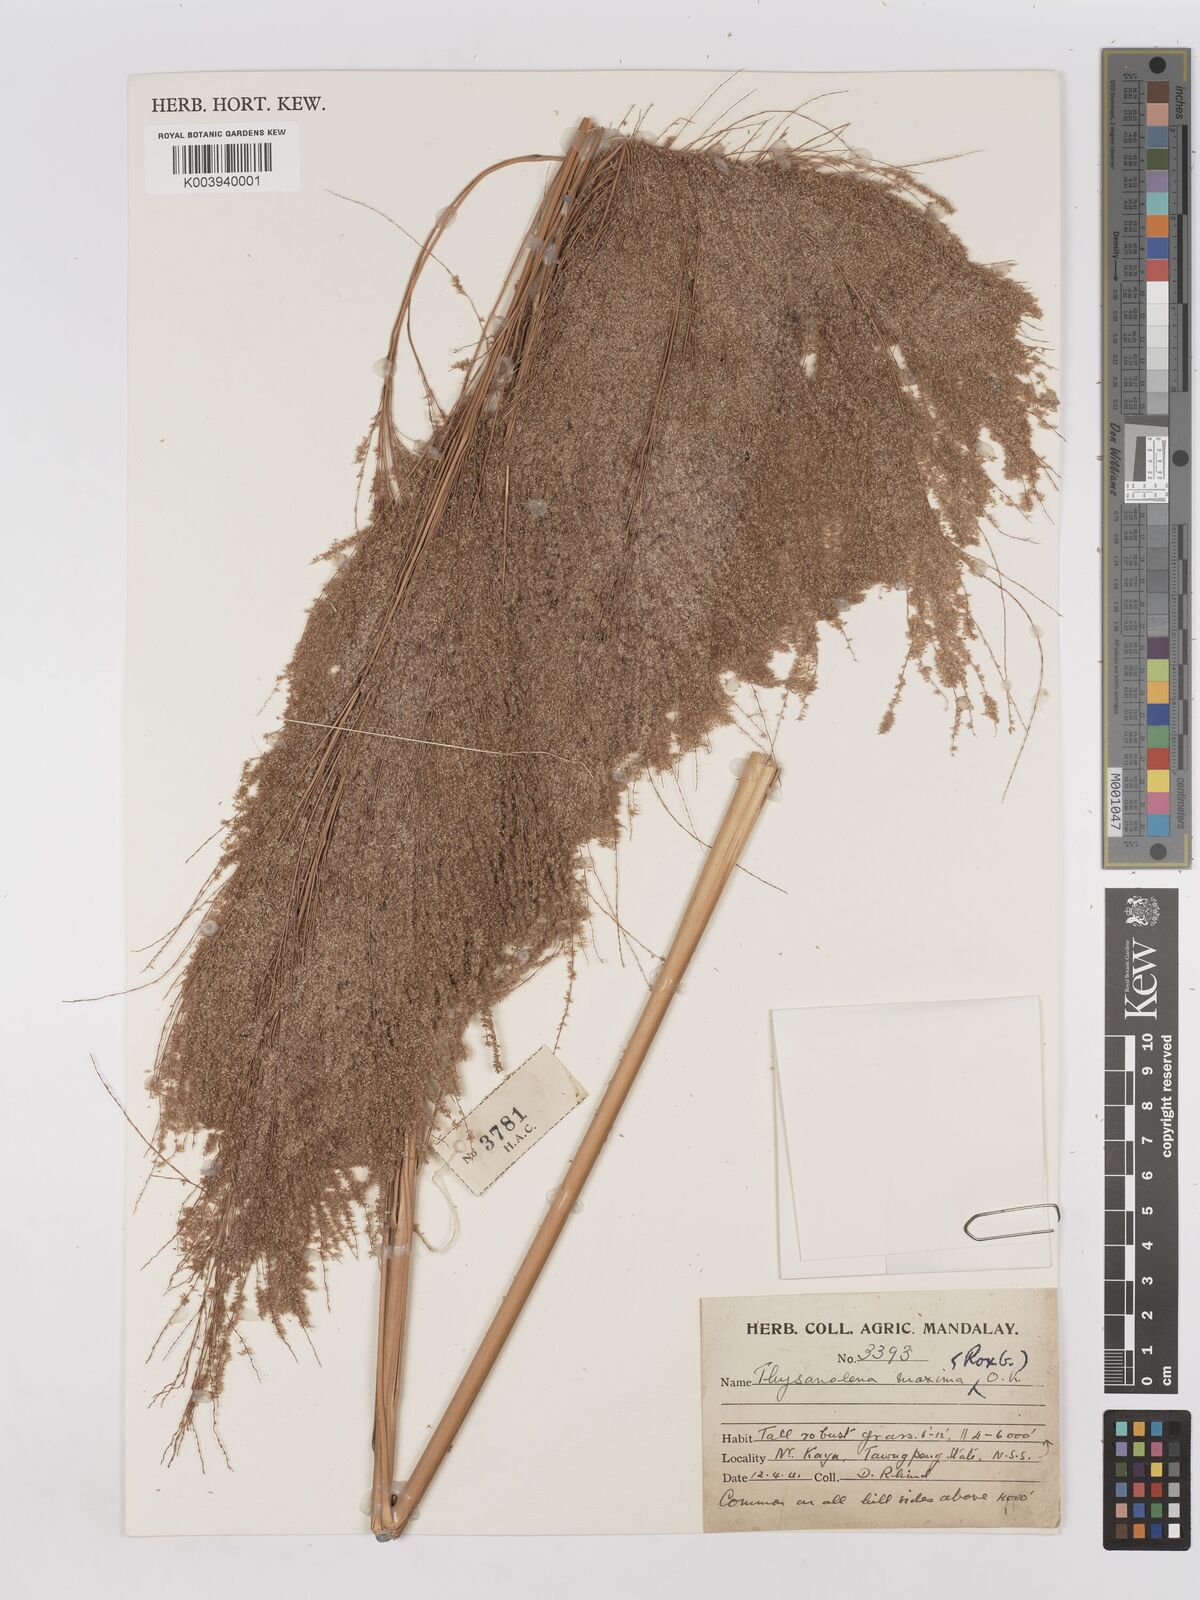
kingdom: Plantae
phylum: Tracheophyta
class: Liliopsida
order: Poales
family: Poaceae
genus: Thysanolaena
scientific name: Thysanolaena latifolia
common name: Tiger grass
